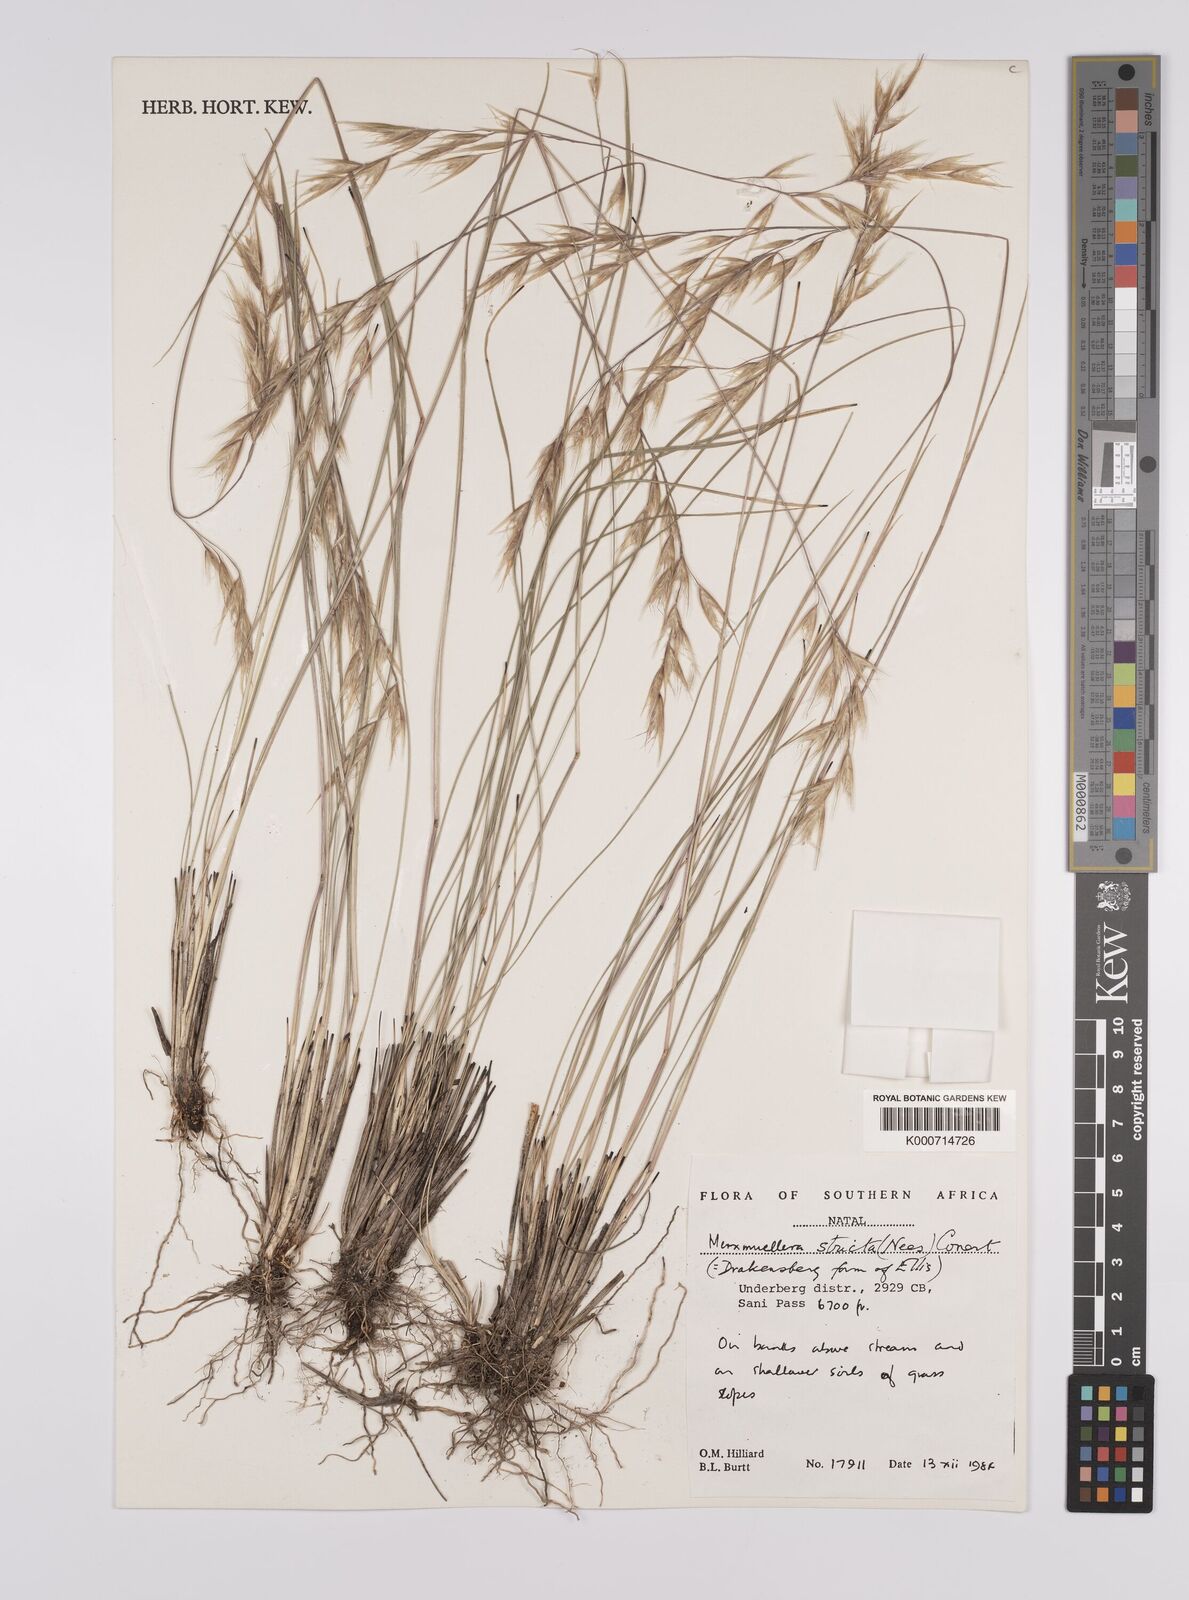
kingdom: Plantae
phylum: Tracheophyta
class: Liliopsida
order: Poales
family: Poaceae
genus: Rytidosperma
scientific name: Rytidosperma
